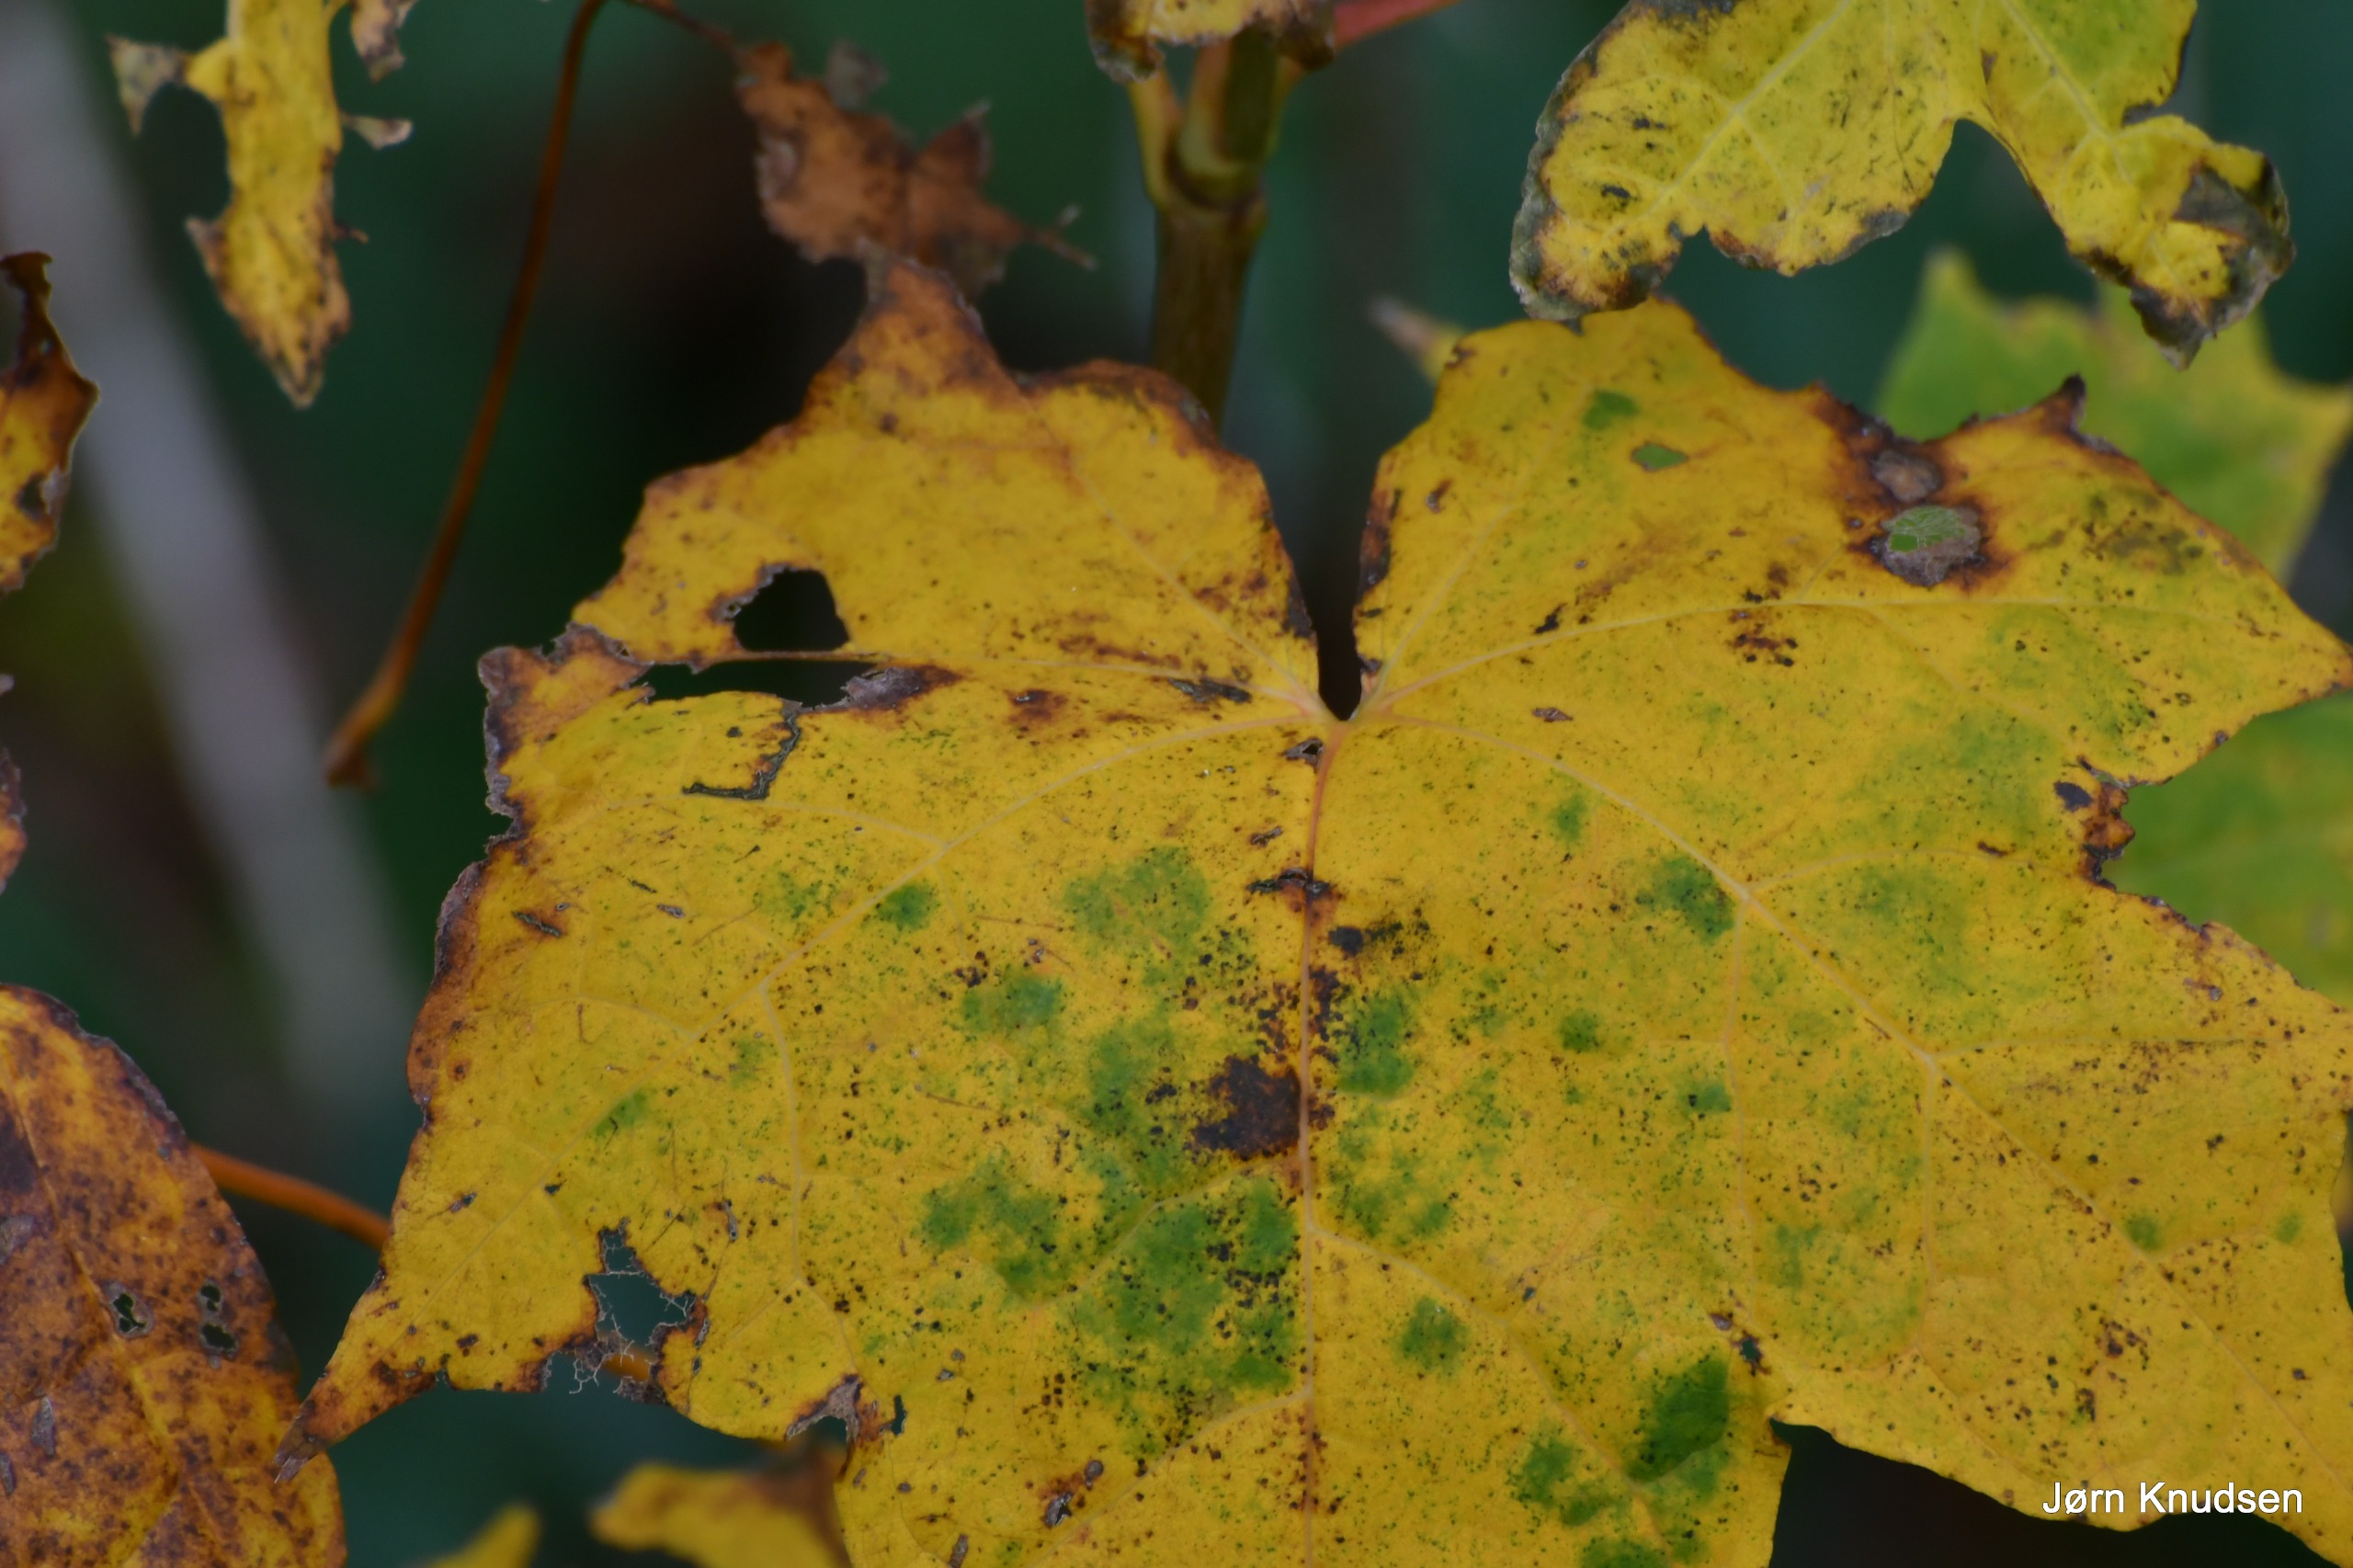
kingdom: Plantae
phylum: Tracheophyta
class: Magnoliopsida
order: Sapindales
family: Sapindaceae
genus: Acer
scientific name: Acer platanoides
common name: Spids-løn
